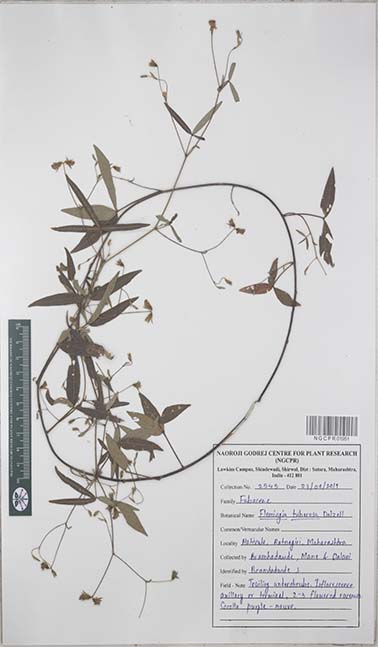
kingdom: Plantae
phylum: Tracheophyta
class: Magnoliopsida
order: Fabales
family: Fabaceae
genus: Flemingia
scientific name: Flemingia tuberosa
